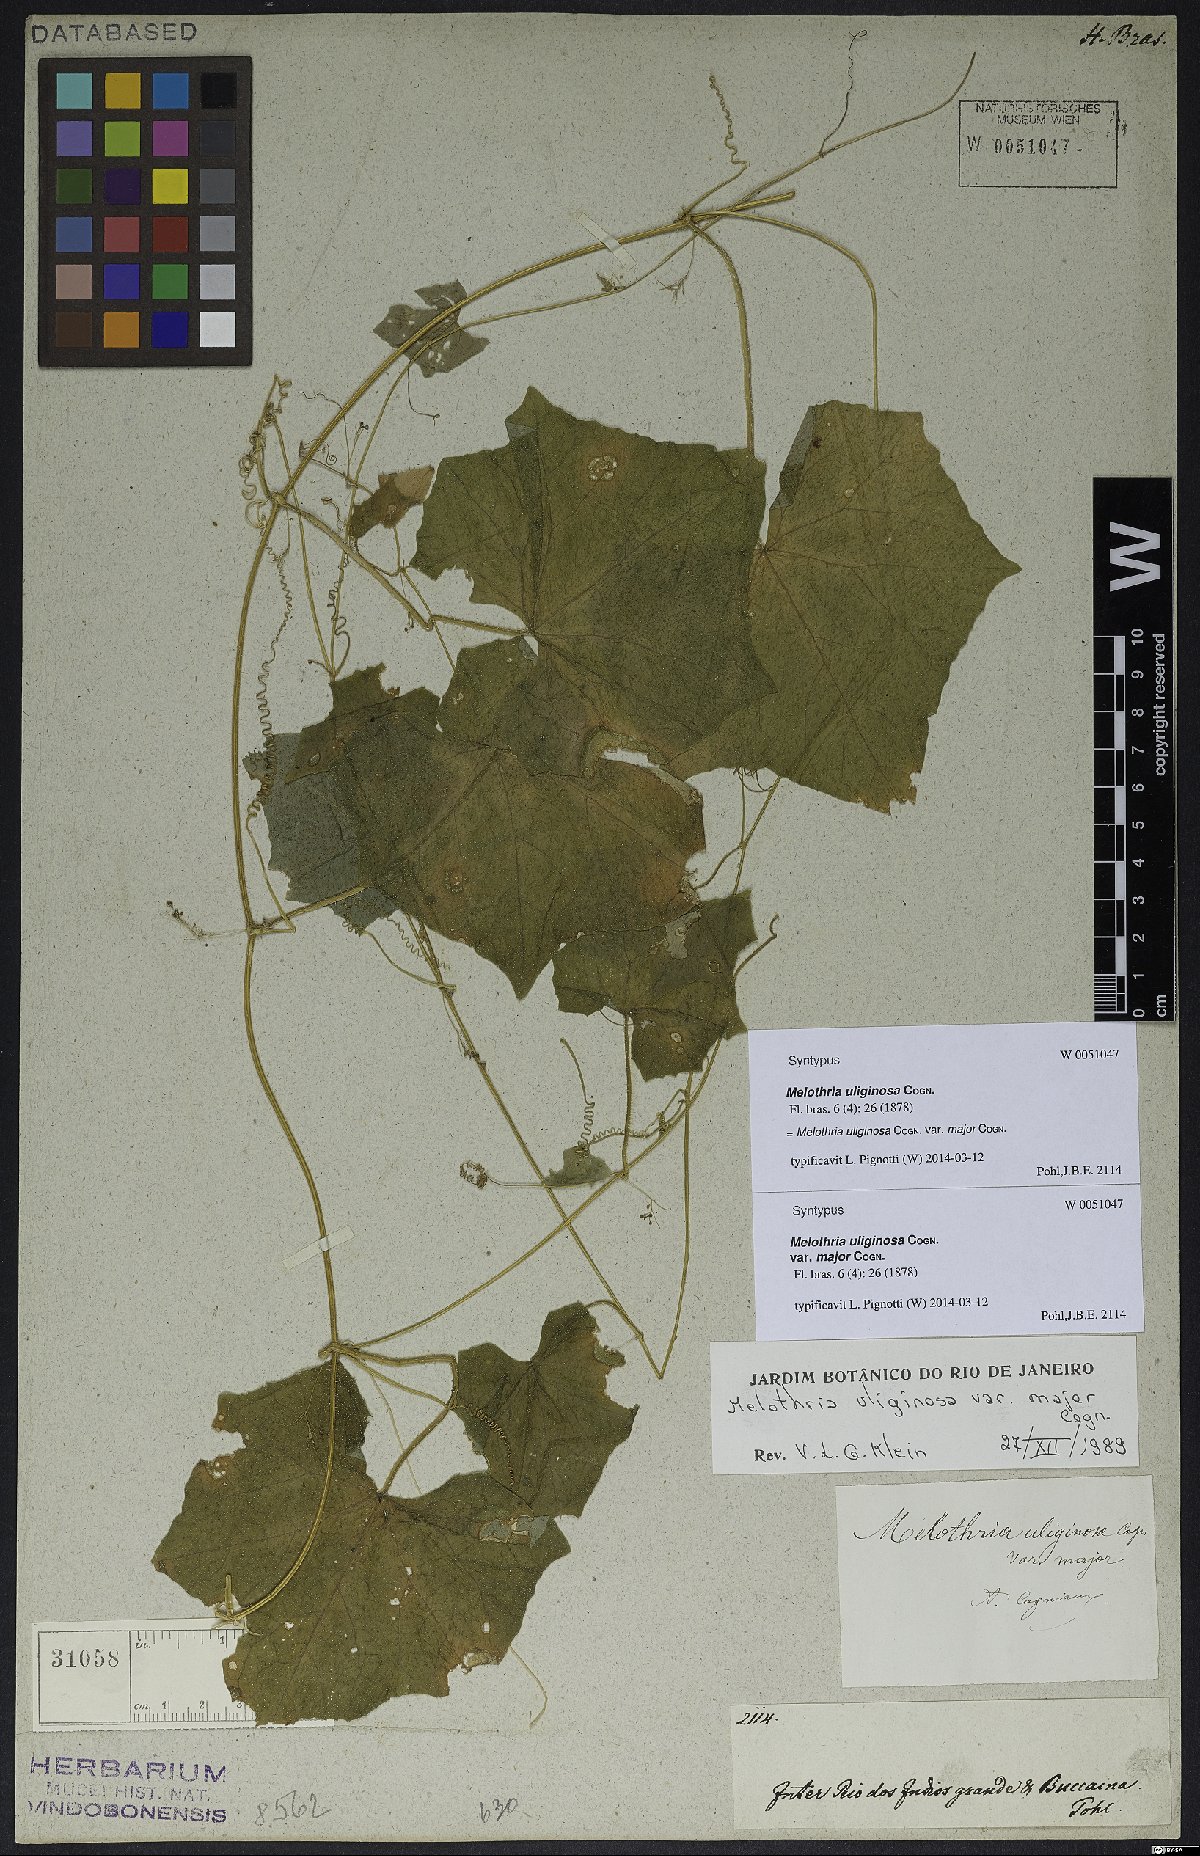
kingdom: Plantae
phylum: Tracheophyta
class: Magnoliopsida
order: Cucurbitales
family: Cucurbitaceae
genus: Melothria
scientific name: Melothria uliginosa
